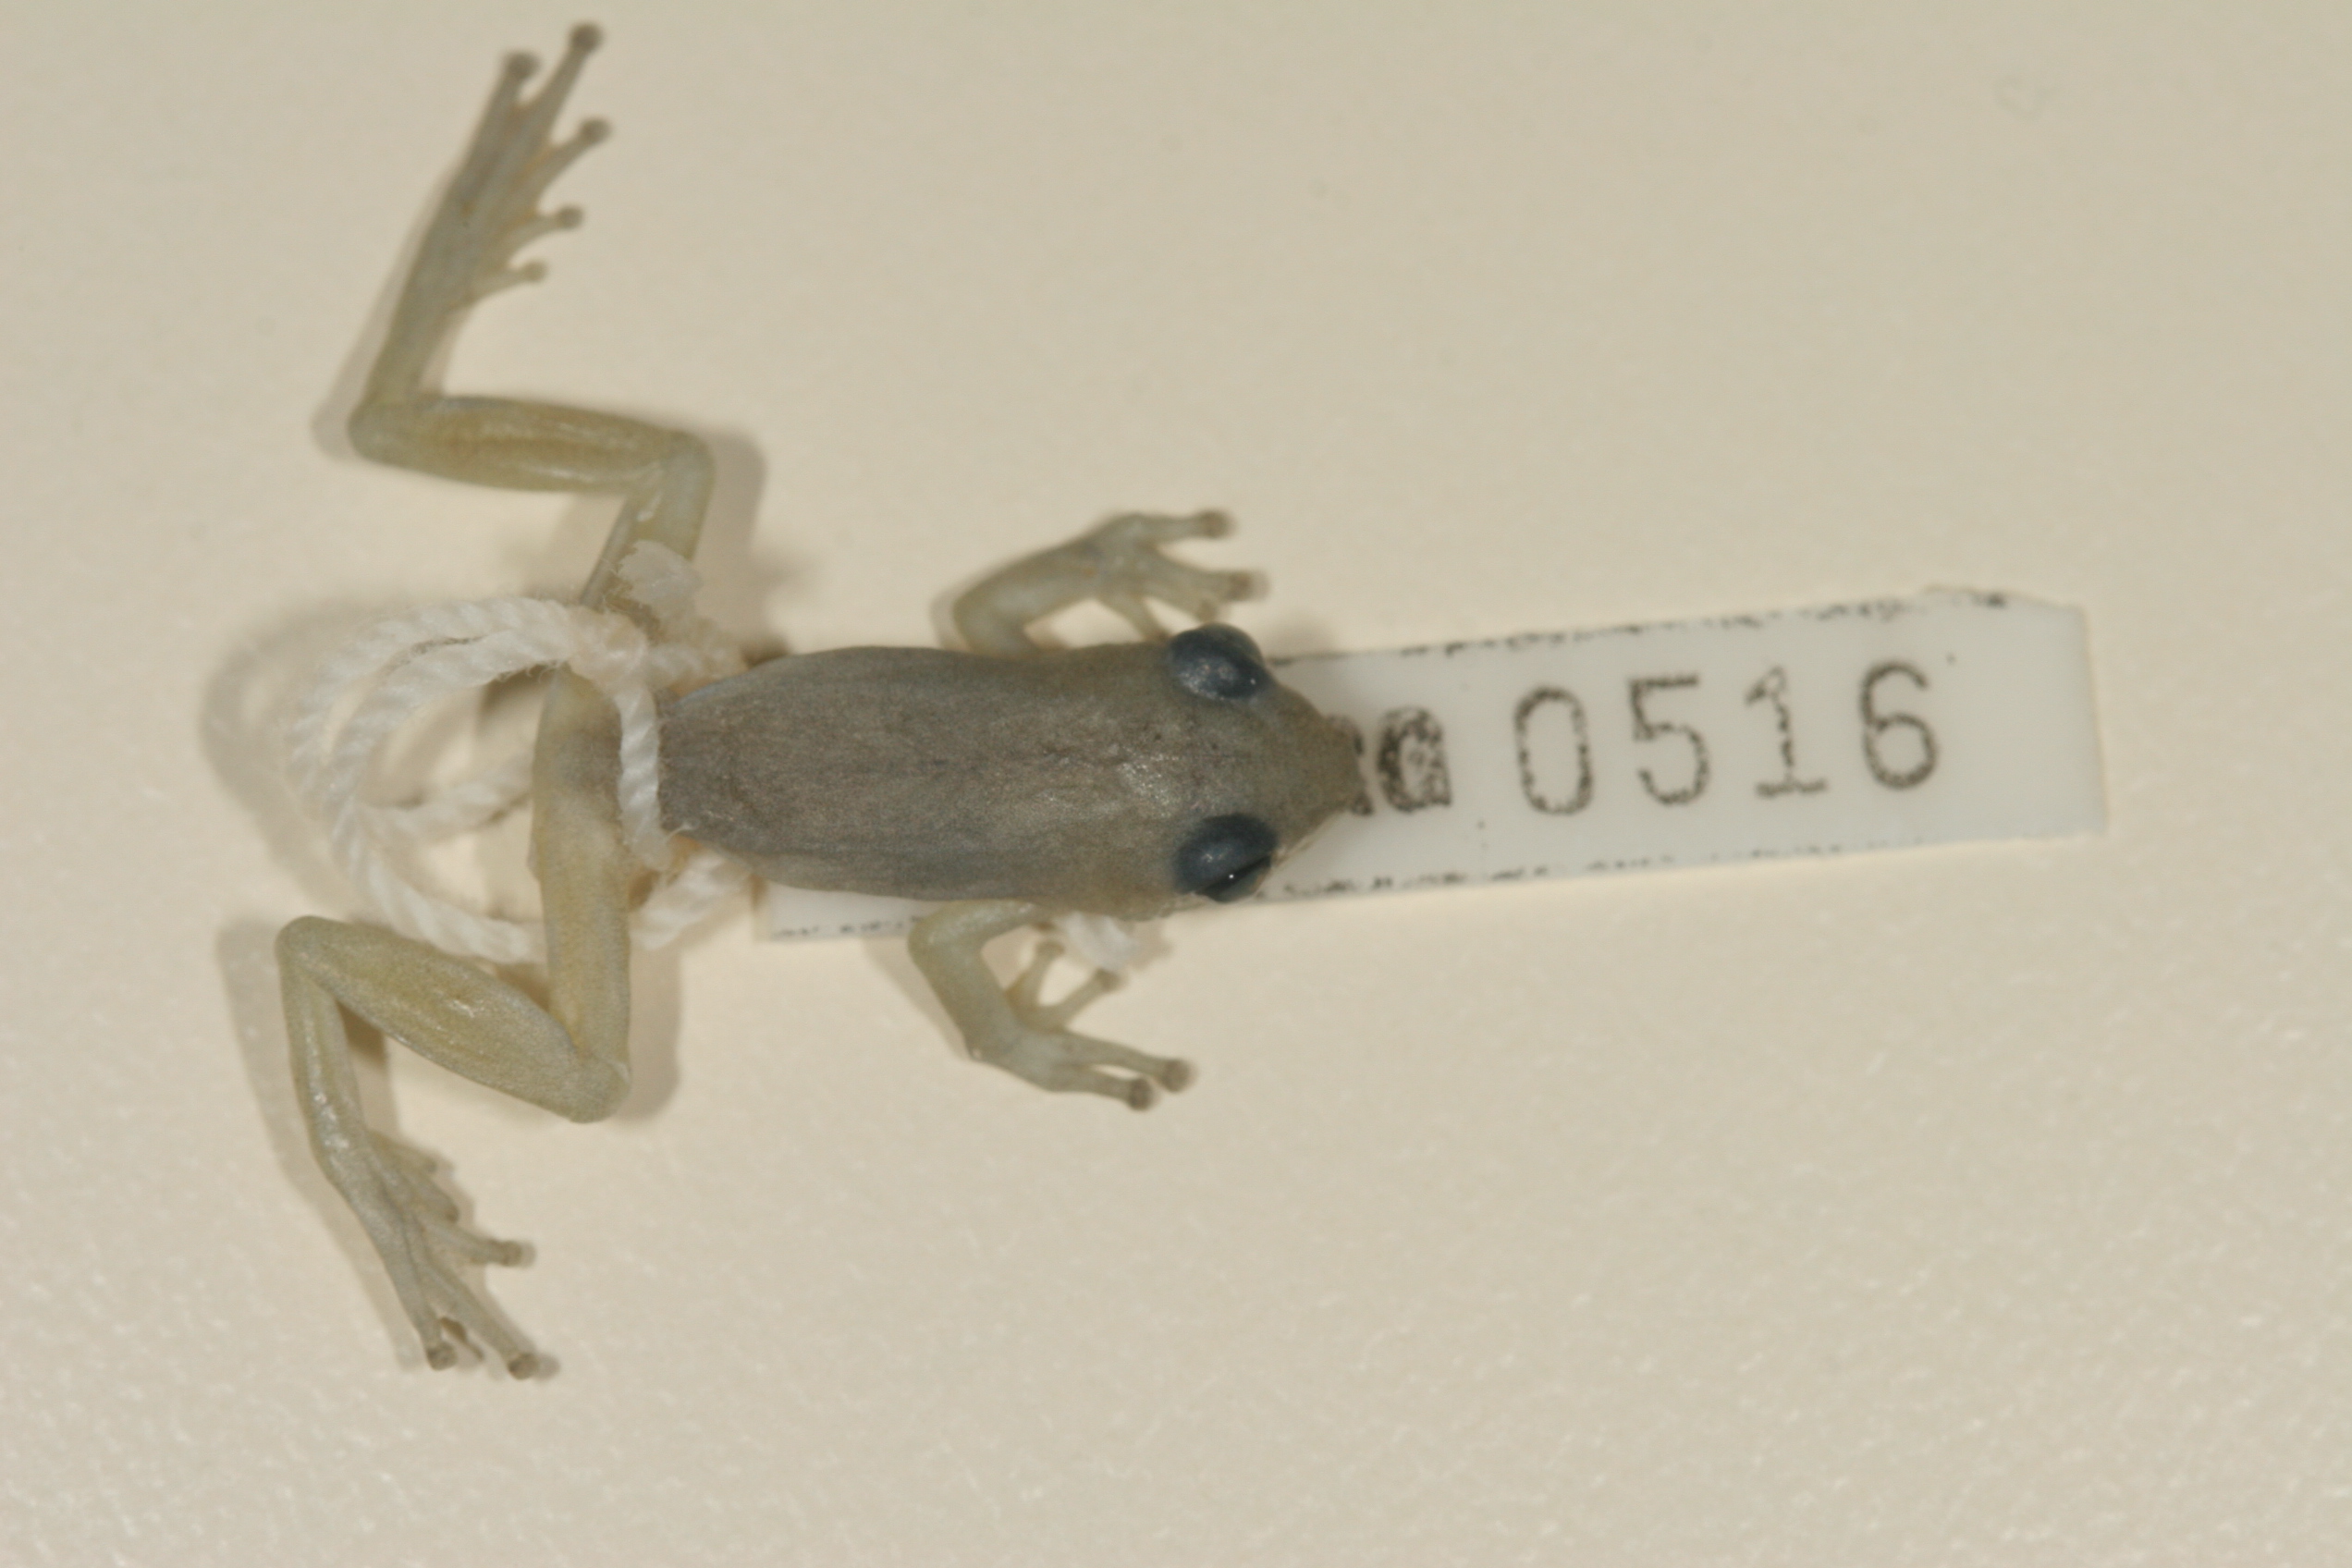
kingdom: Animalia
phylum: Chordata
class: Amphibia
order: Anura
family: Hyperoliidae
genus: Hyperolius
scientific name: Hyperolius pickersgilli
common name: Pickersgill's reed frog
